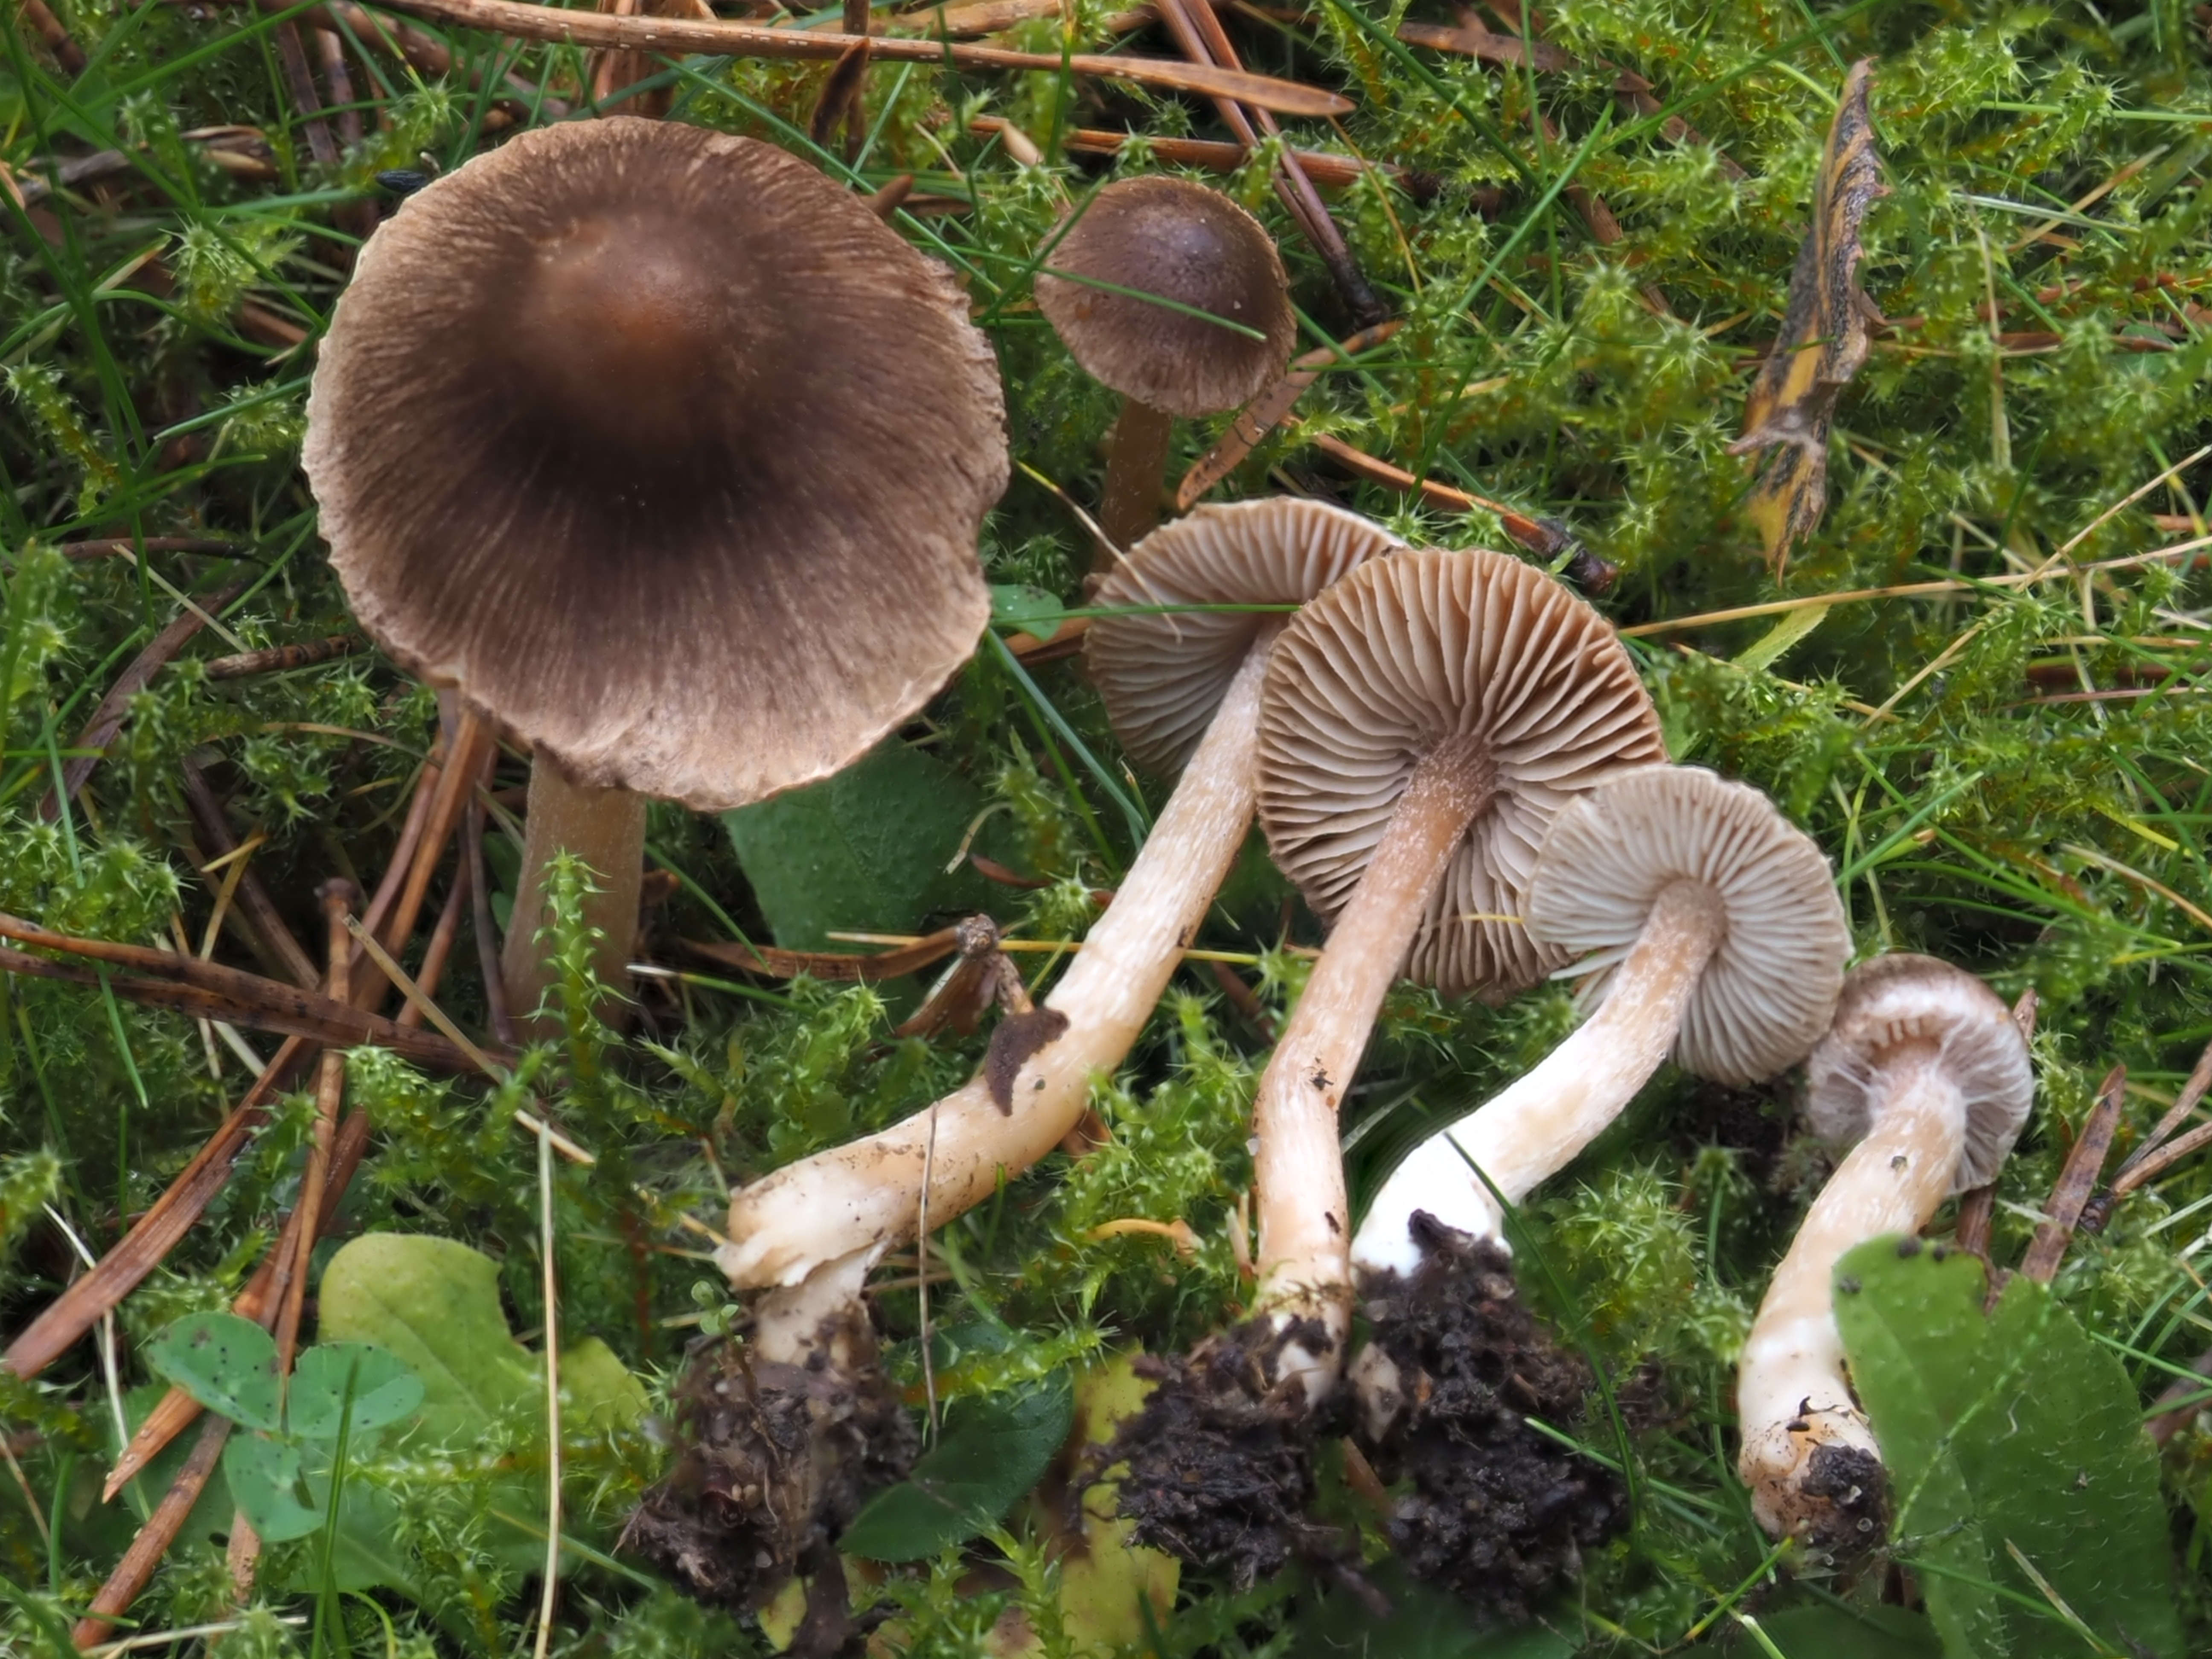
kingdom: Fungi
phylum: Basidiomycota
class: Agaricomycetes
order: Agaricales
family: Inocybaceae
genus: Inocybe
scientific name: Inocybe
